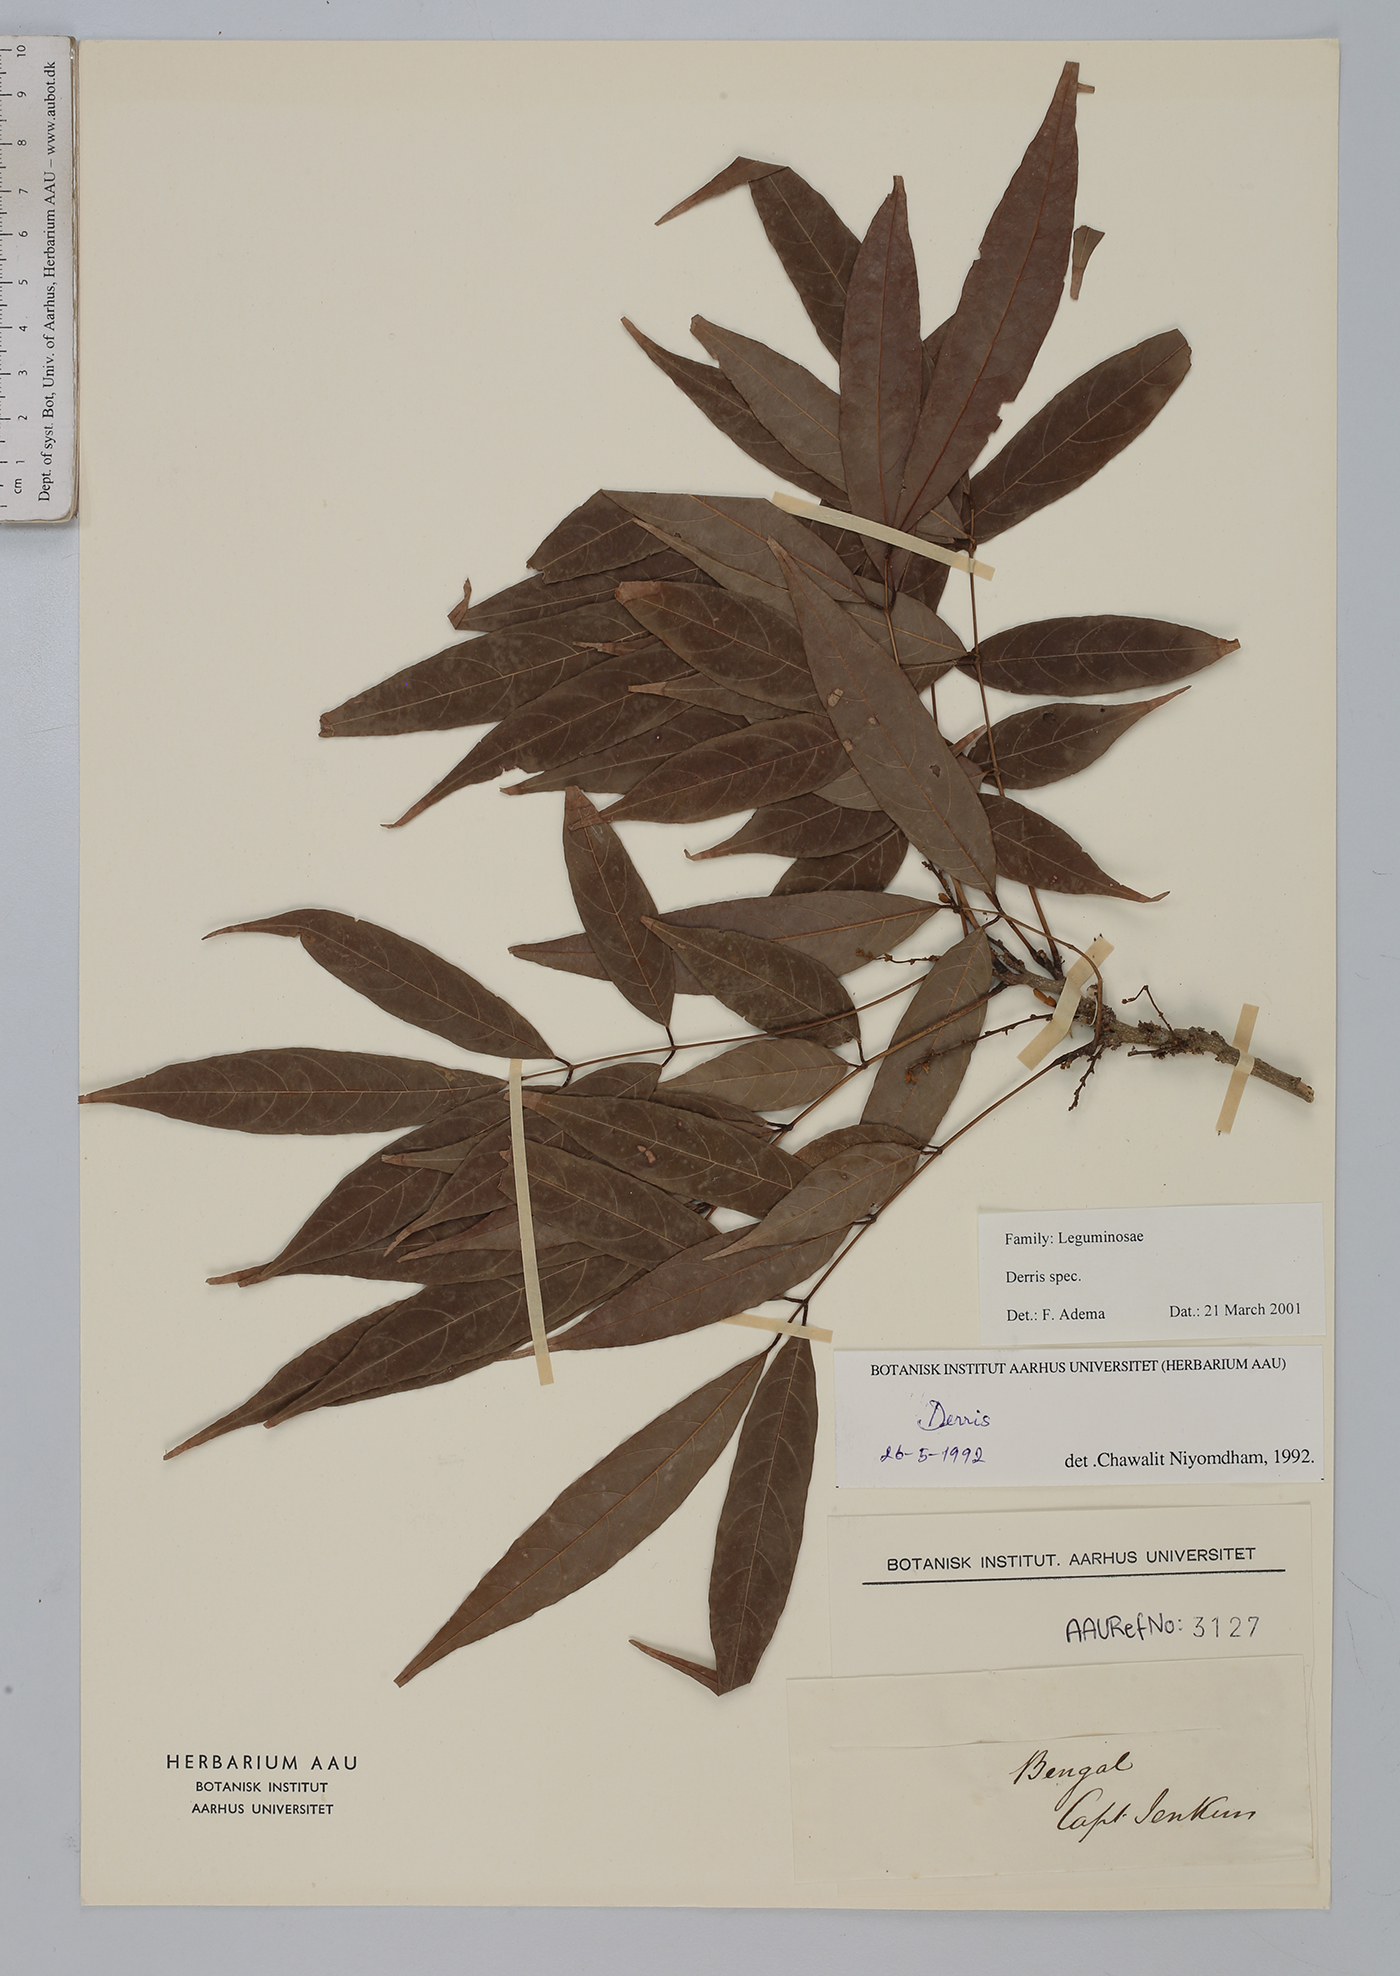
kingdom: Plantae
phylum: Tracheophyta
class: Magnoliopsida
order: Fabales
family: Fabaceae
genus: Derris
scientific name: Derris
